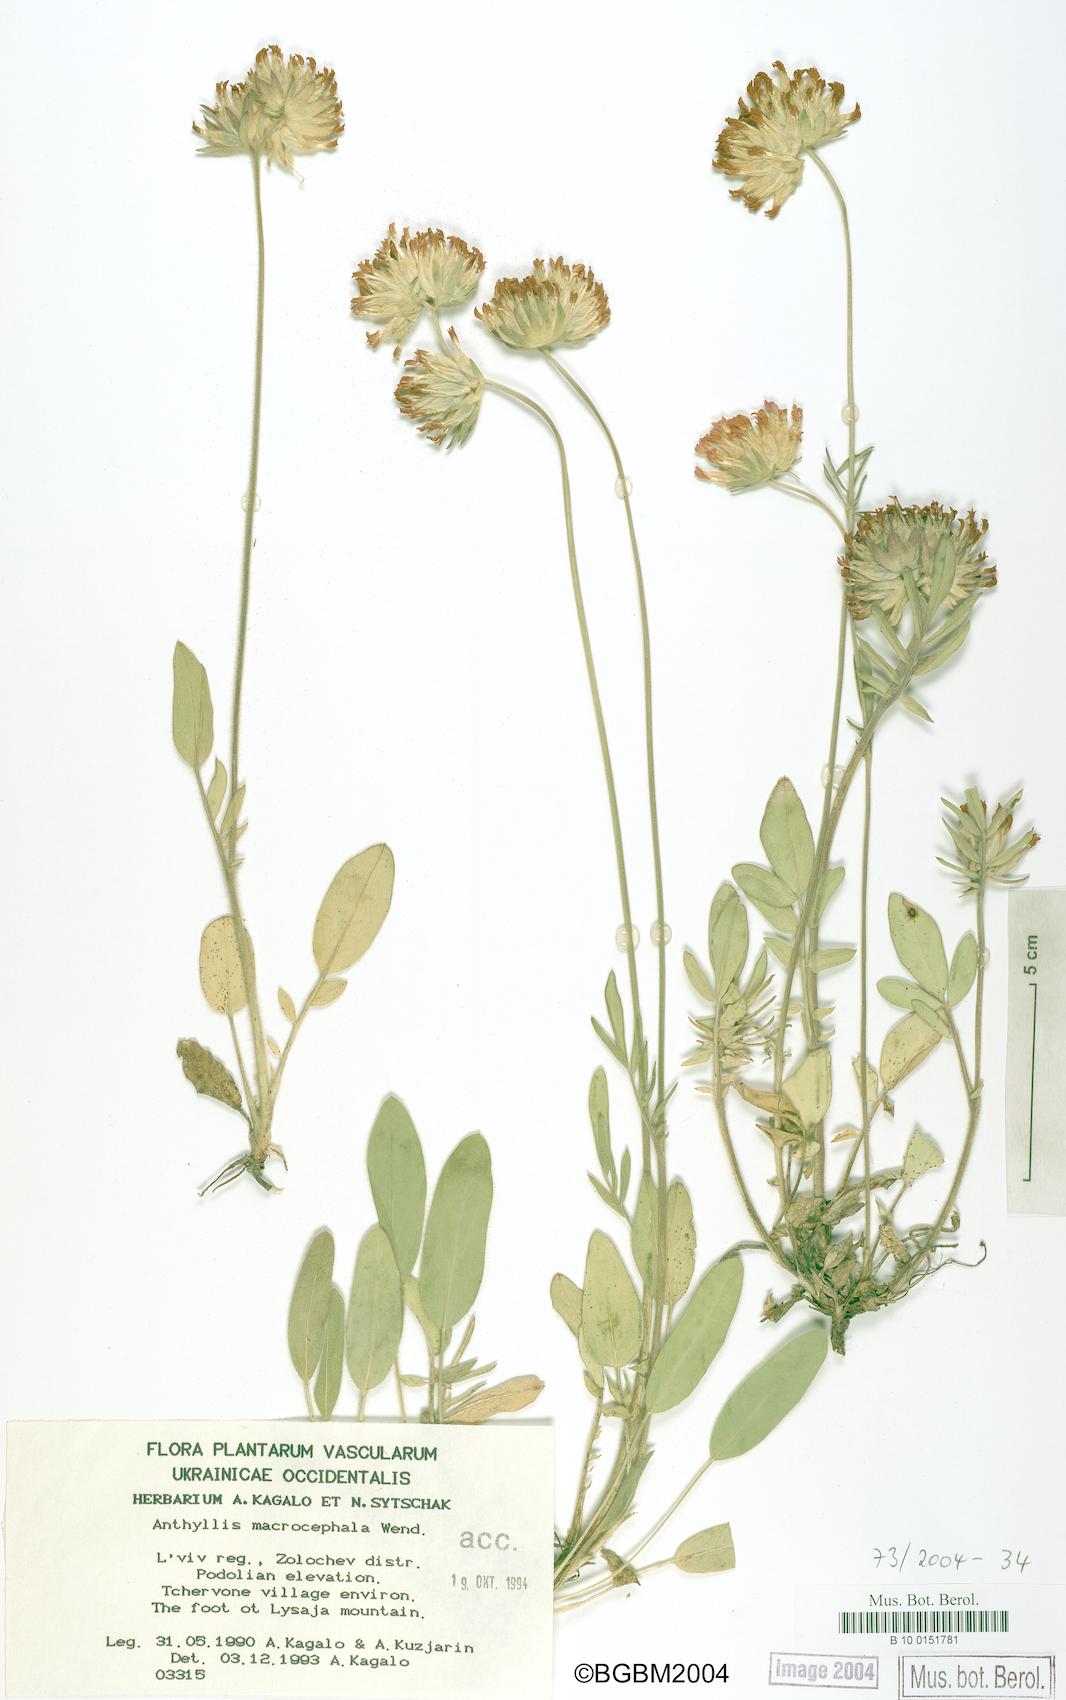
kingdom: Plantae
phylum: Tracheophyta
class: Magnoliopsida
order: Fabales
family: Fabaceae
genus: Anthyllis
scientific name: Anthyllis vulneraria
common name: Kidney vetch
